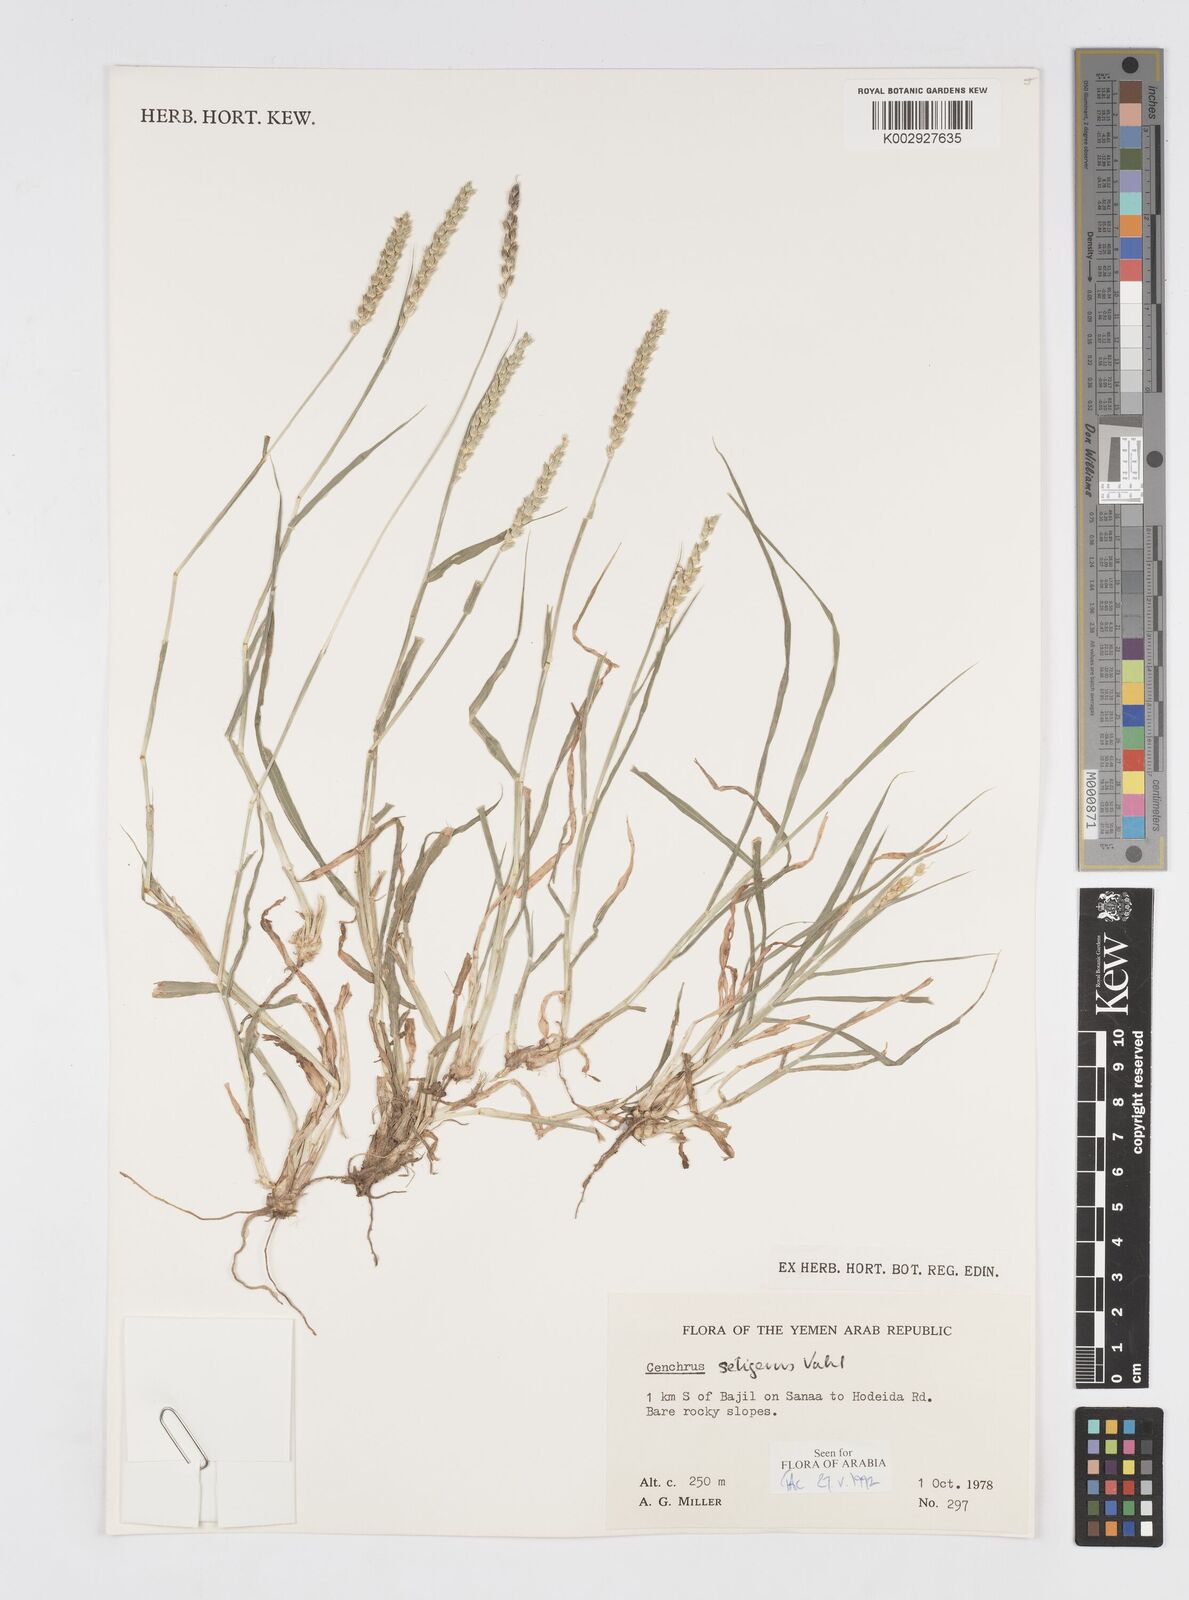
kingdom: Plantae
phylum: Tracheophyta
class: Liliopsida
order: Poales
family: Poaceae
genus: Cenchrus
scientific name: Cenchrus setigerus
